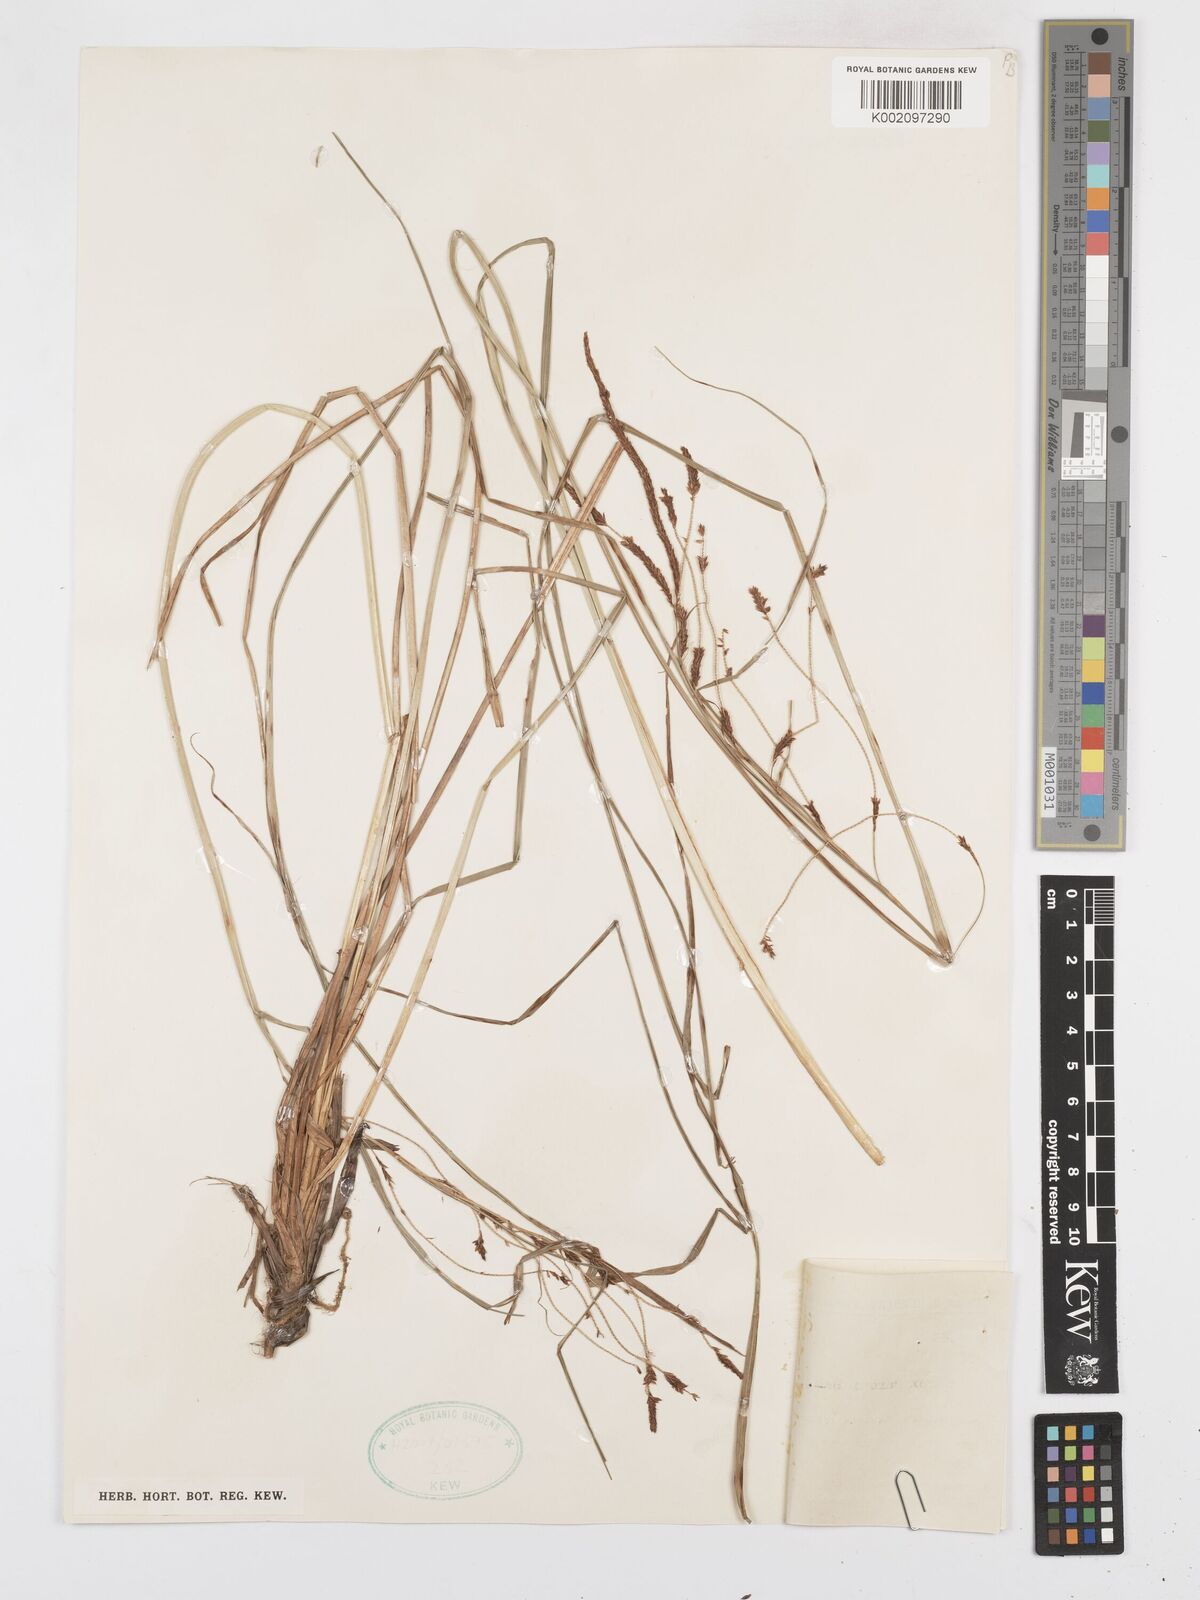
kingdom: Plantae
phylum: Tracheophyta
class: Liliopsida
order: Poales
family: Cyperaceae
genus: Carex
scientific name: Carex baronii
